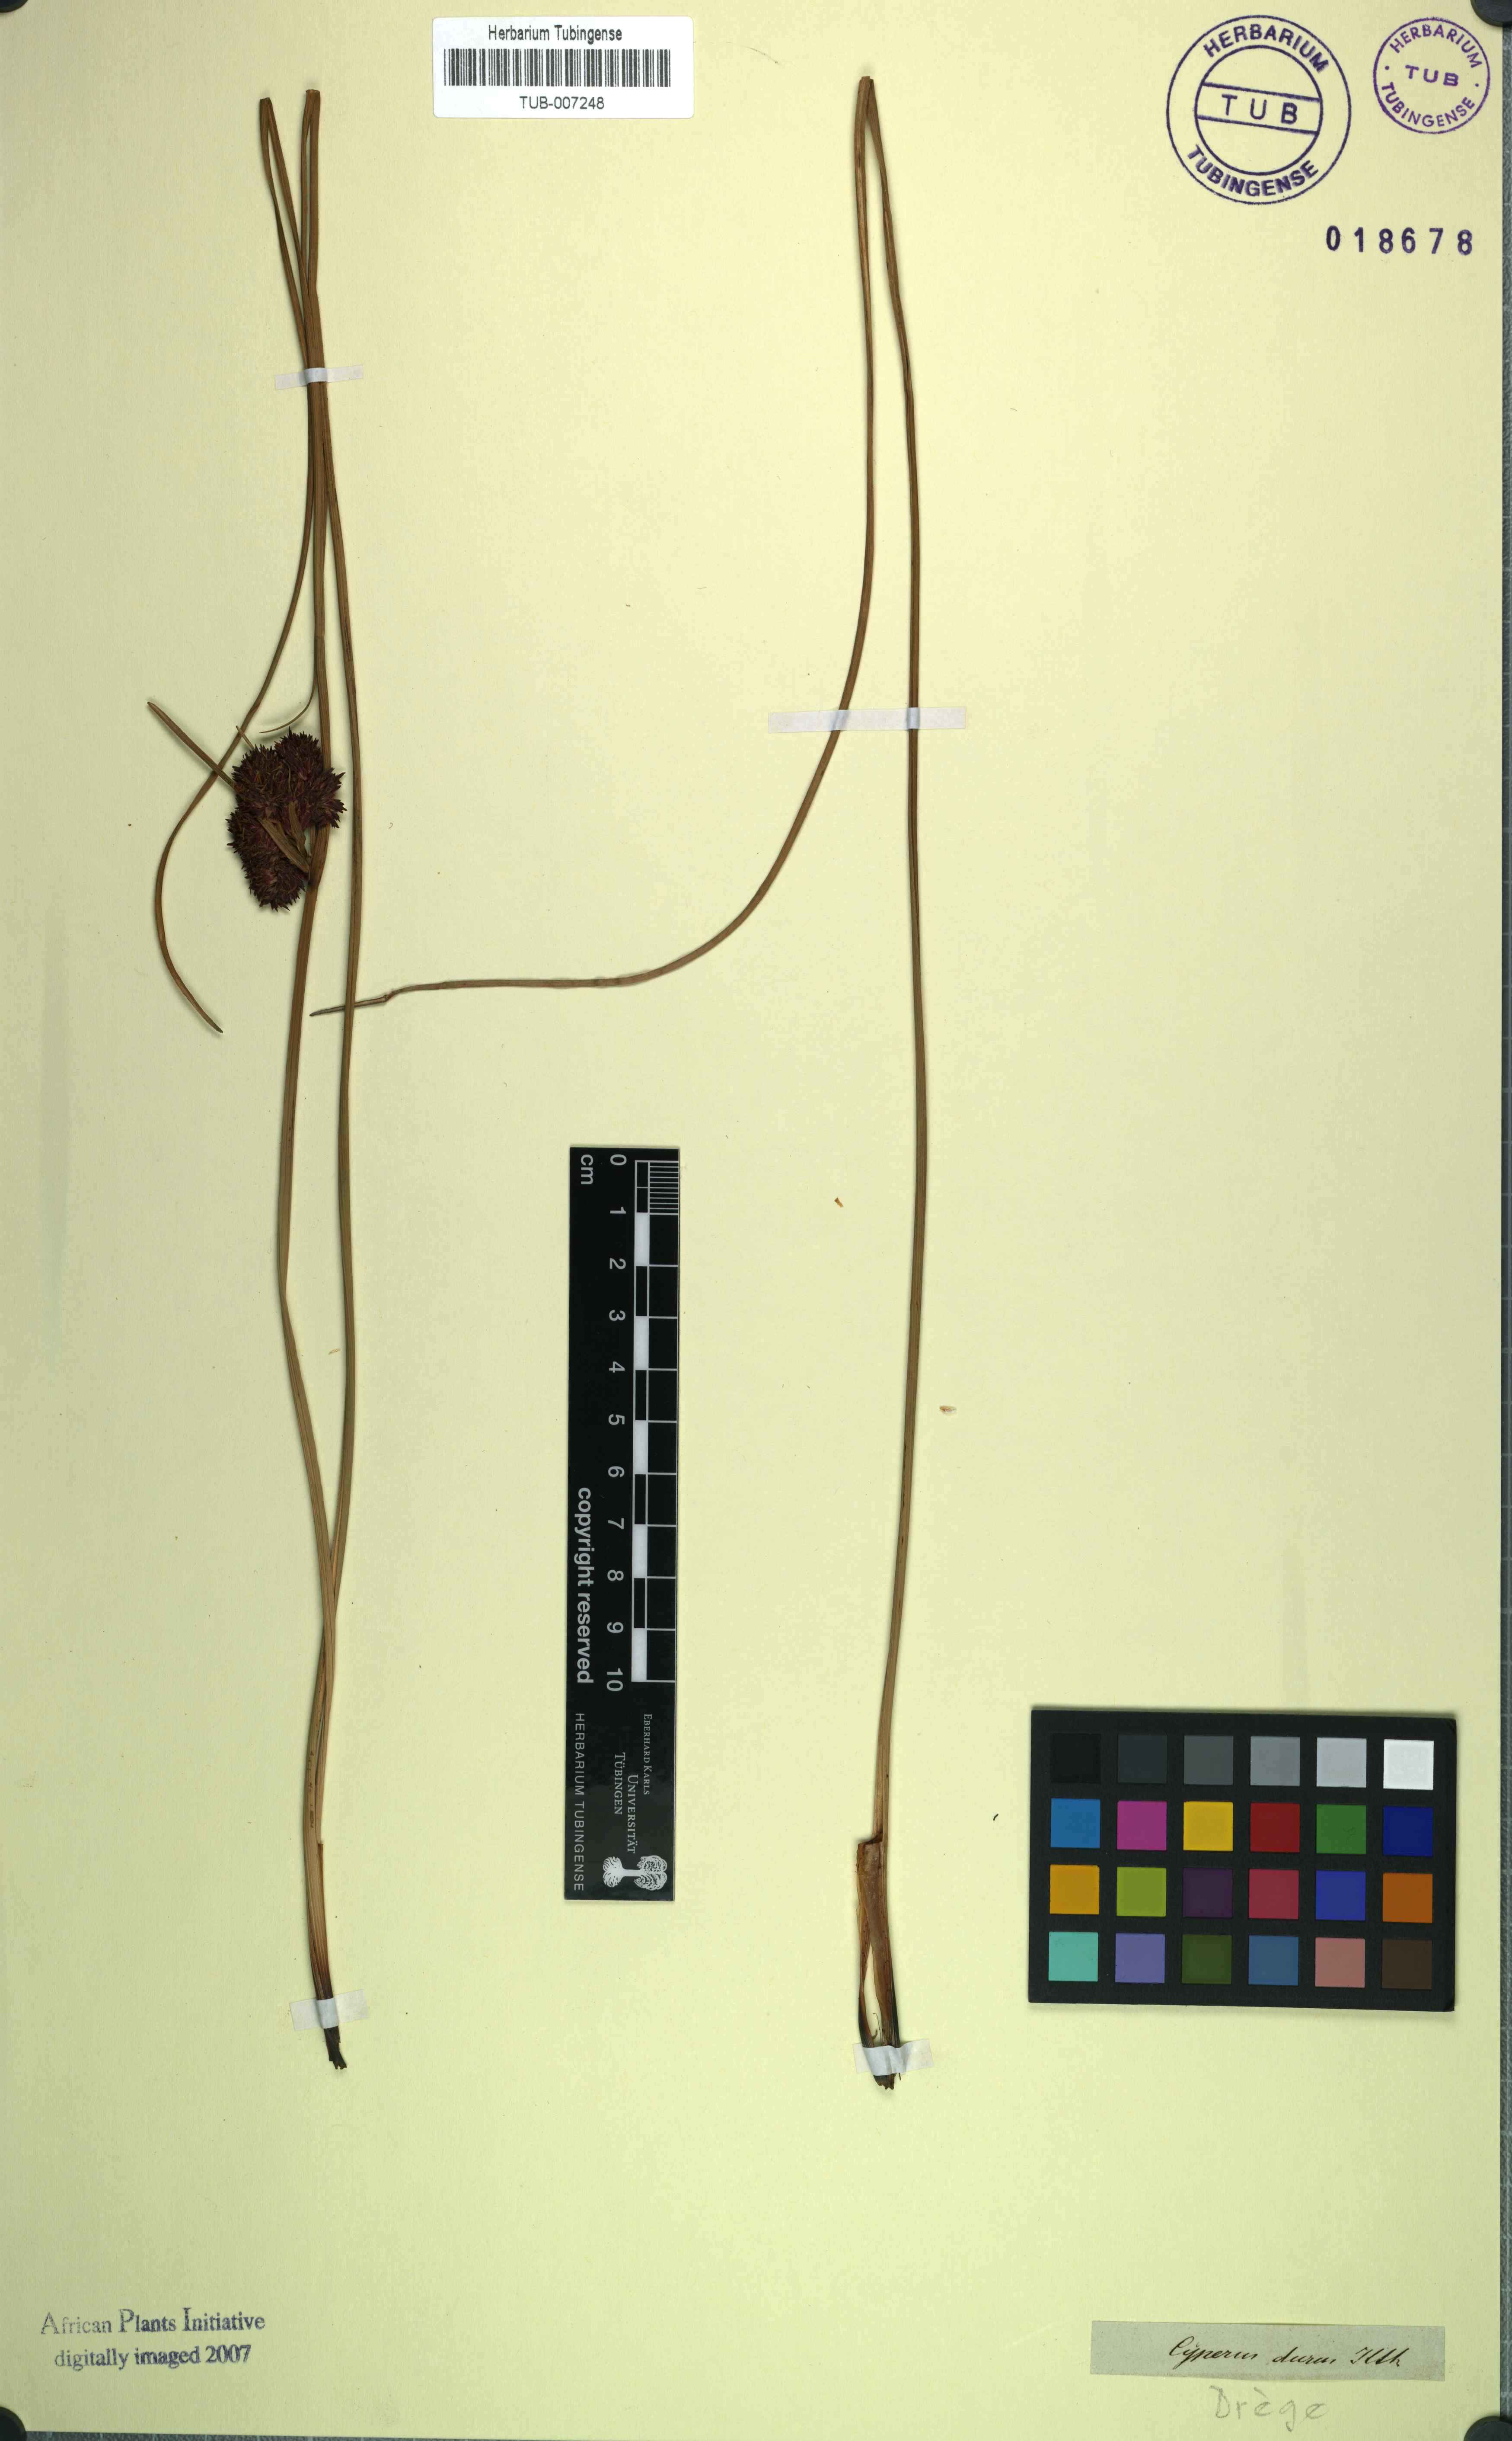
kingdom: Plantae
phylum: Tracheophyta
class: Liliopsida
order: Poales
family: Cyperaceae
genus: Cyperus
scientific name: Cyperus durus
